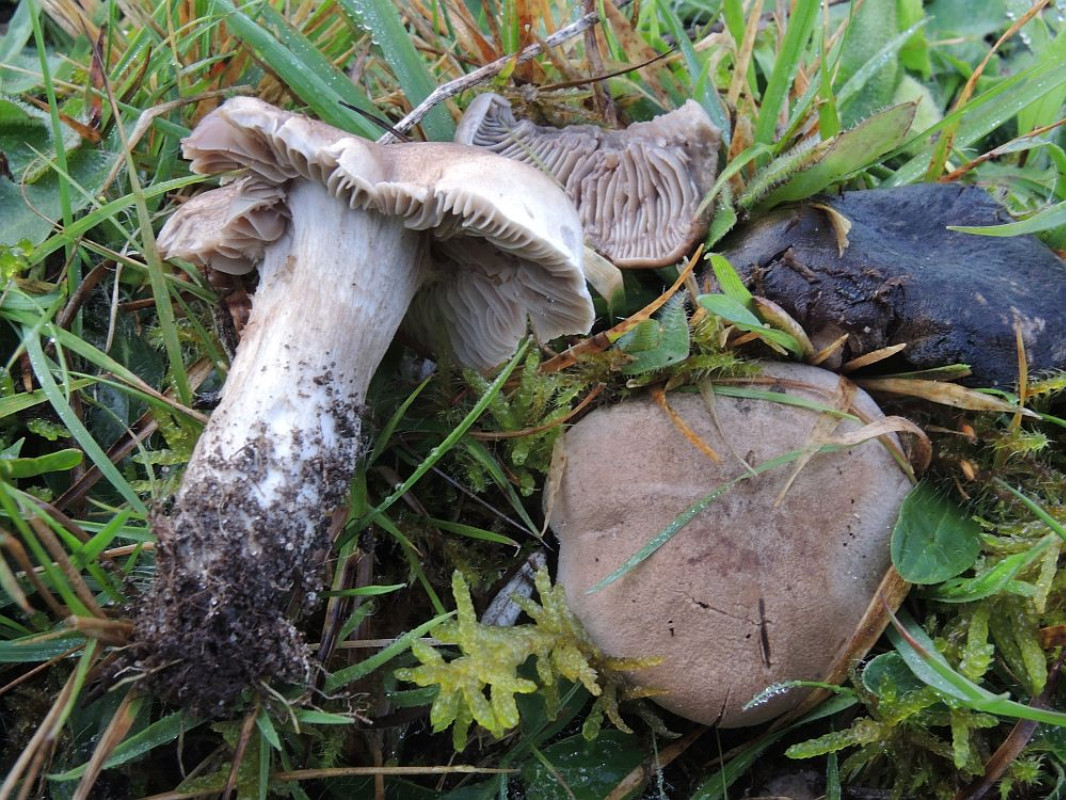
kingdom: Fungi
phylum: Basidiomycota
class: Agaricomycetes
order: Agaricales
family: Tricholomataceae
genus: Pseudotricholoma
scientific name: Pseudotricholoma metapodium
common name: rødmende alfehat
